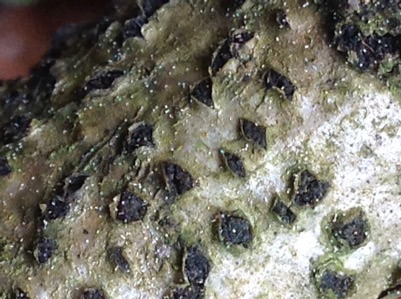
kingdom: Fungi
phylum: Ascomycota
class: Sordariomycetes
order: Xylariales
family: Diatrypaceae
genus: Diatrype
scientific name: Diatrype disciformis
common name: kant-kulskorpe
